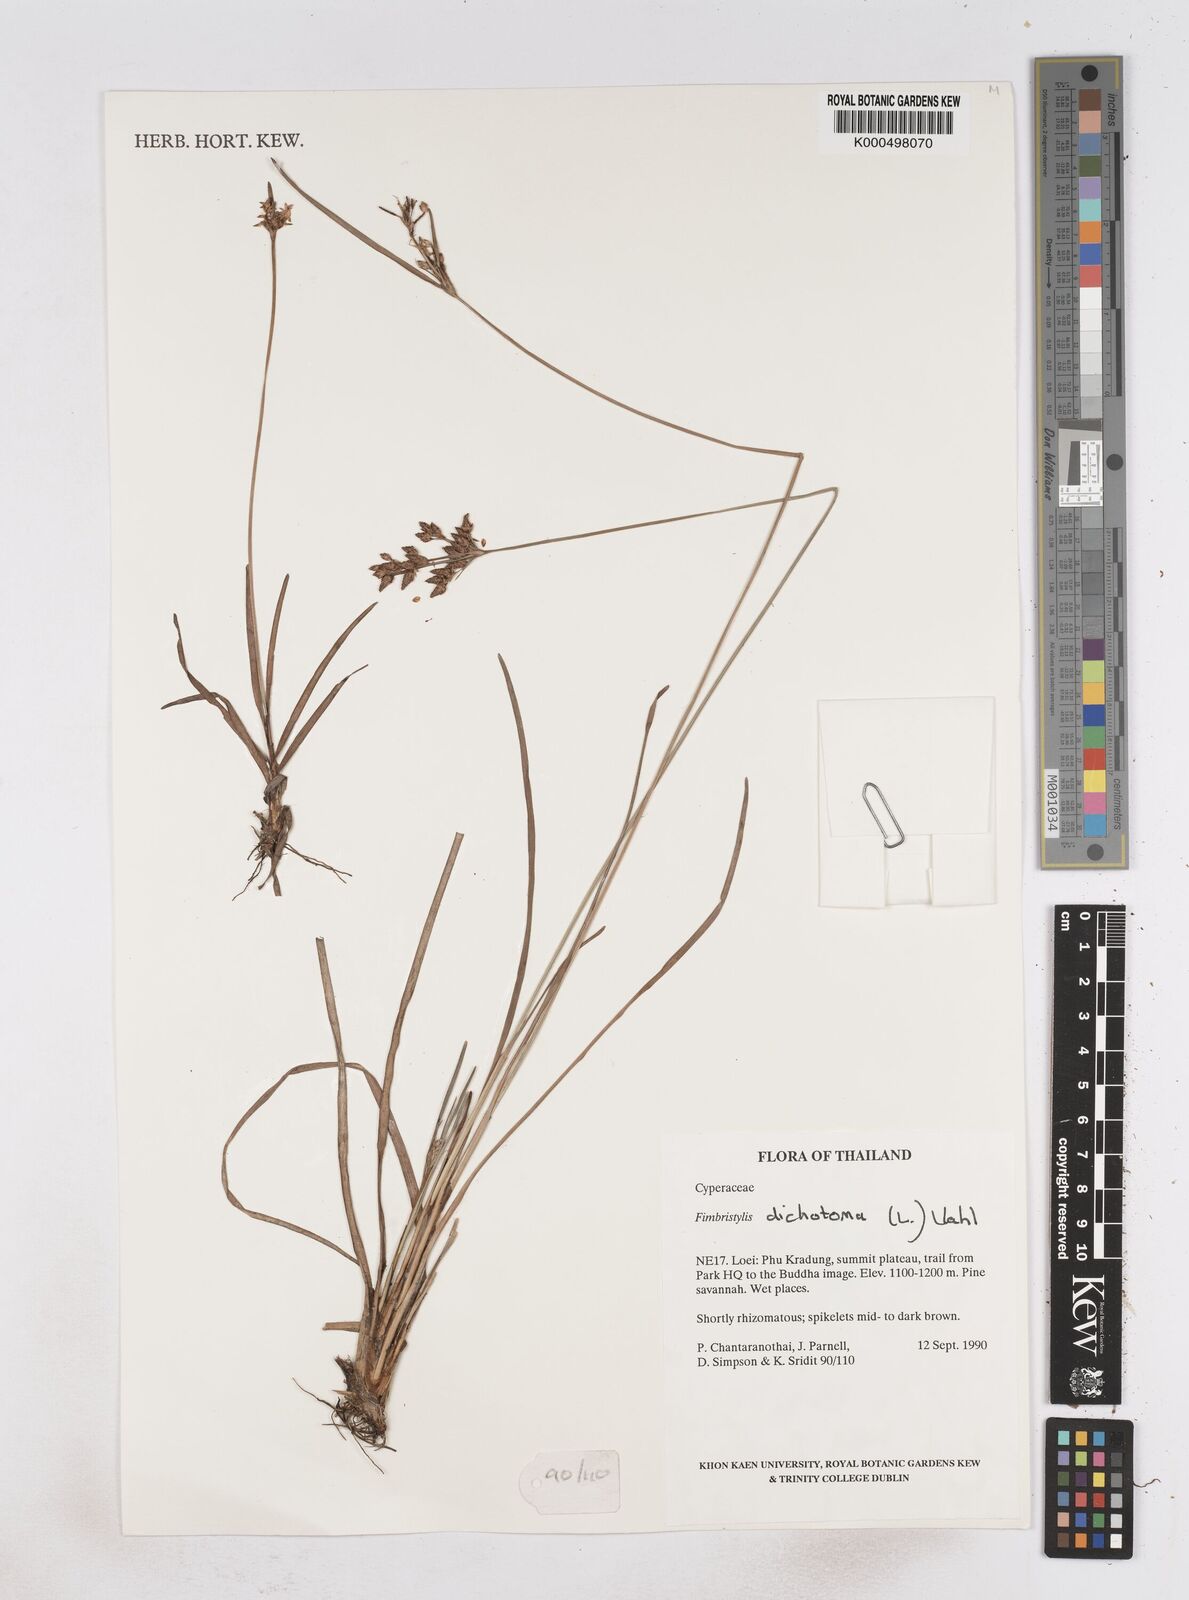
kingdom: Plantae
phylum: Tracheophyta
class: Liliopsida
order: Poales
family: Cyperaceae
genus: Fimbristylis
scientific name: Fimbristylis dichotoma
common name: Forked fimbry
